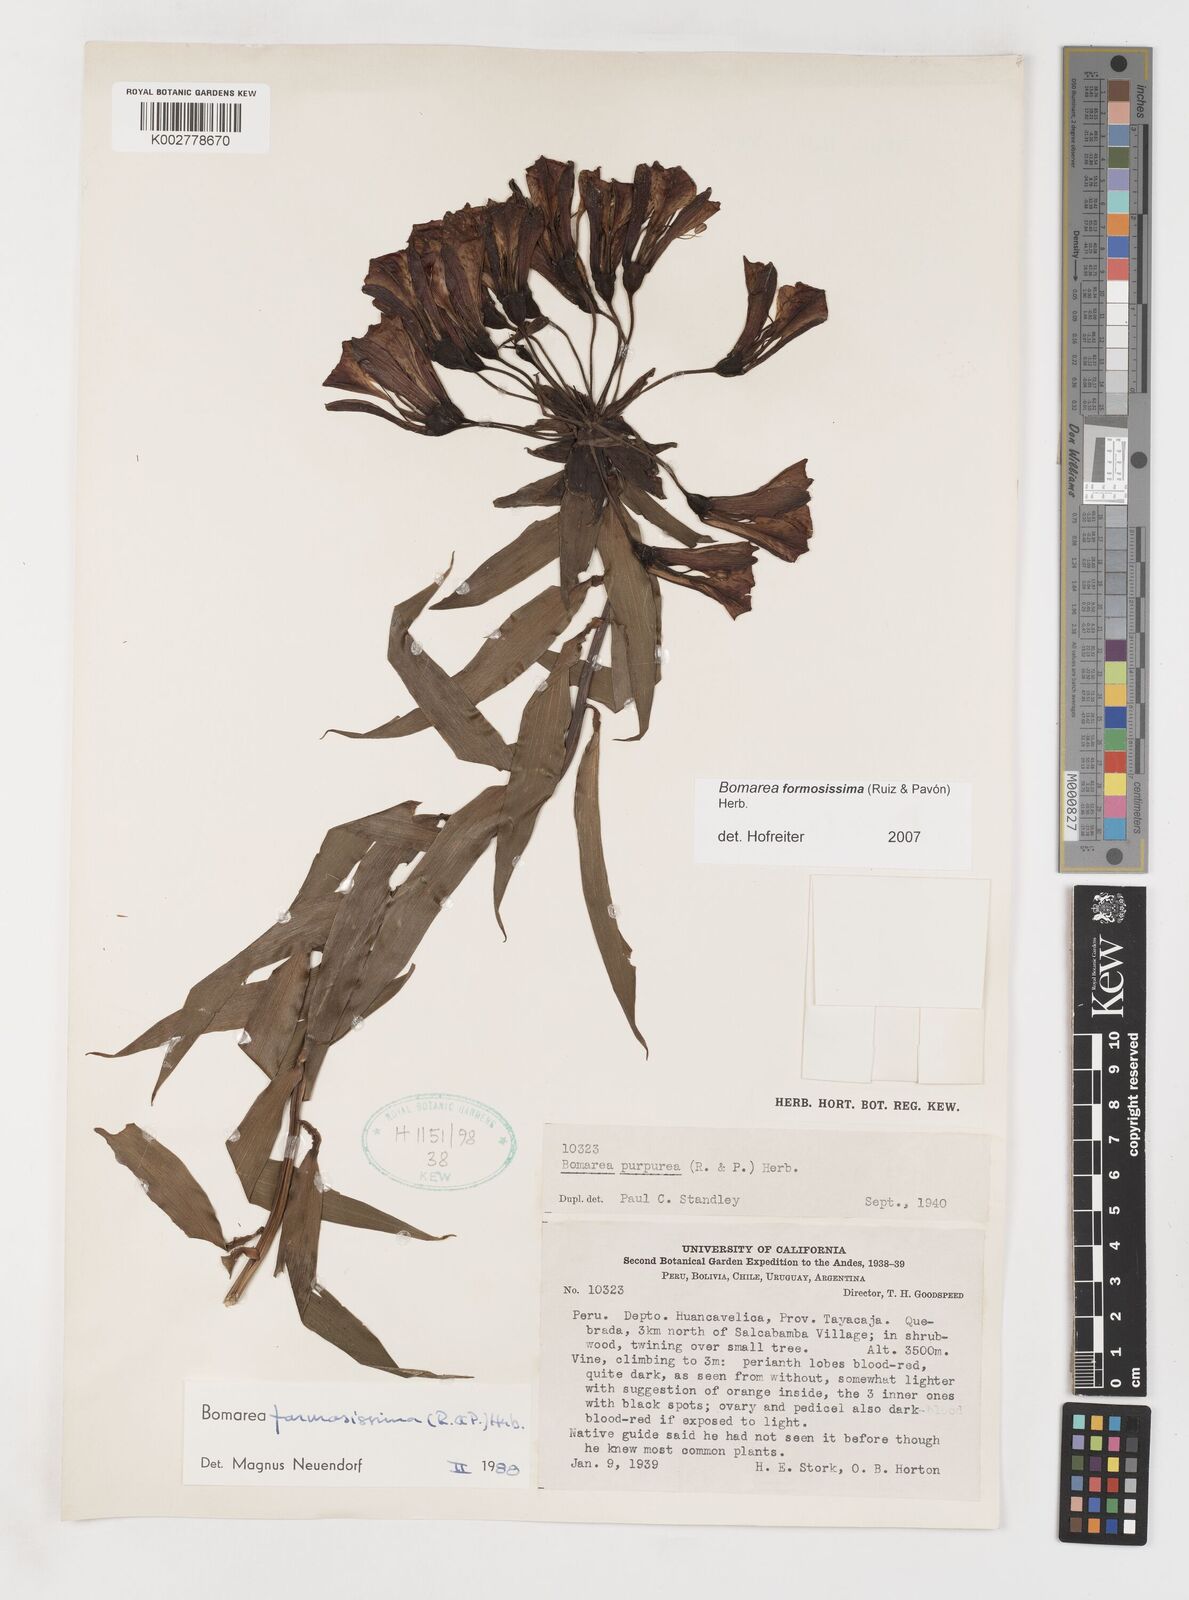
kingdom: Plantae
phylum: Tracheophyta
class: Liliopsida
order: Liliales
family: Alstroemeriaceae
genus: Bomarea
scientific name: Bomarea formosissima
